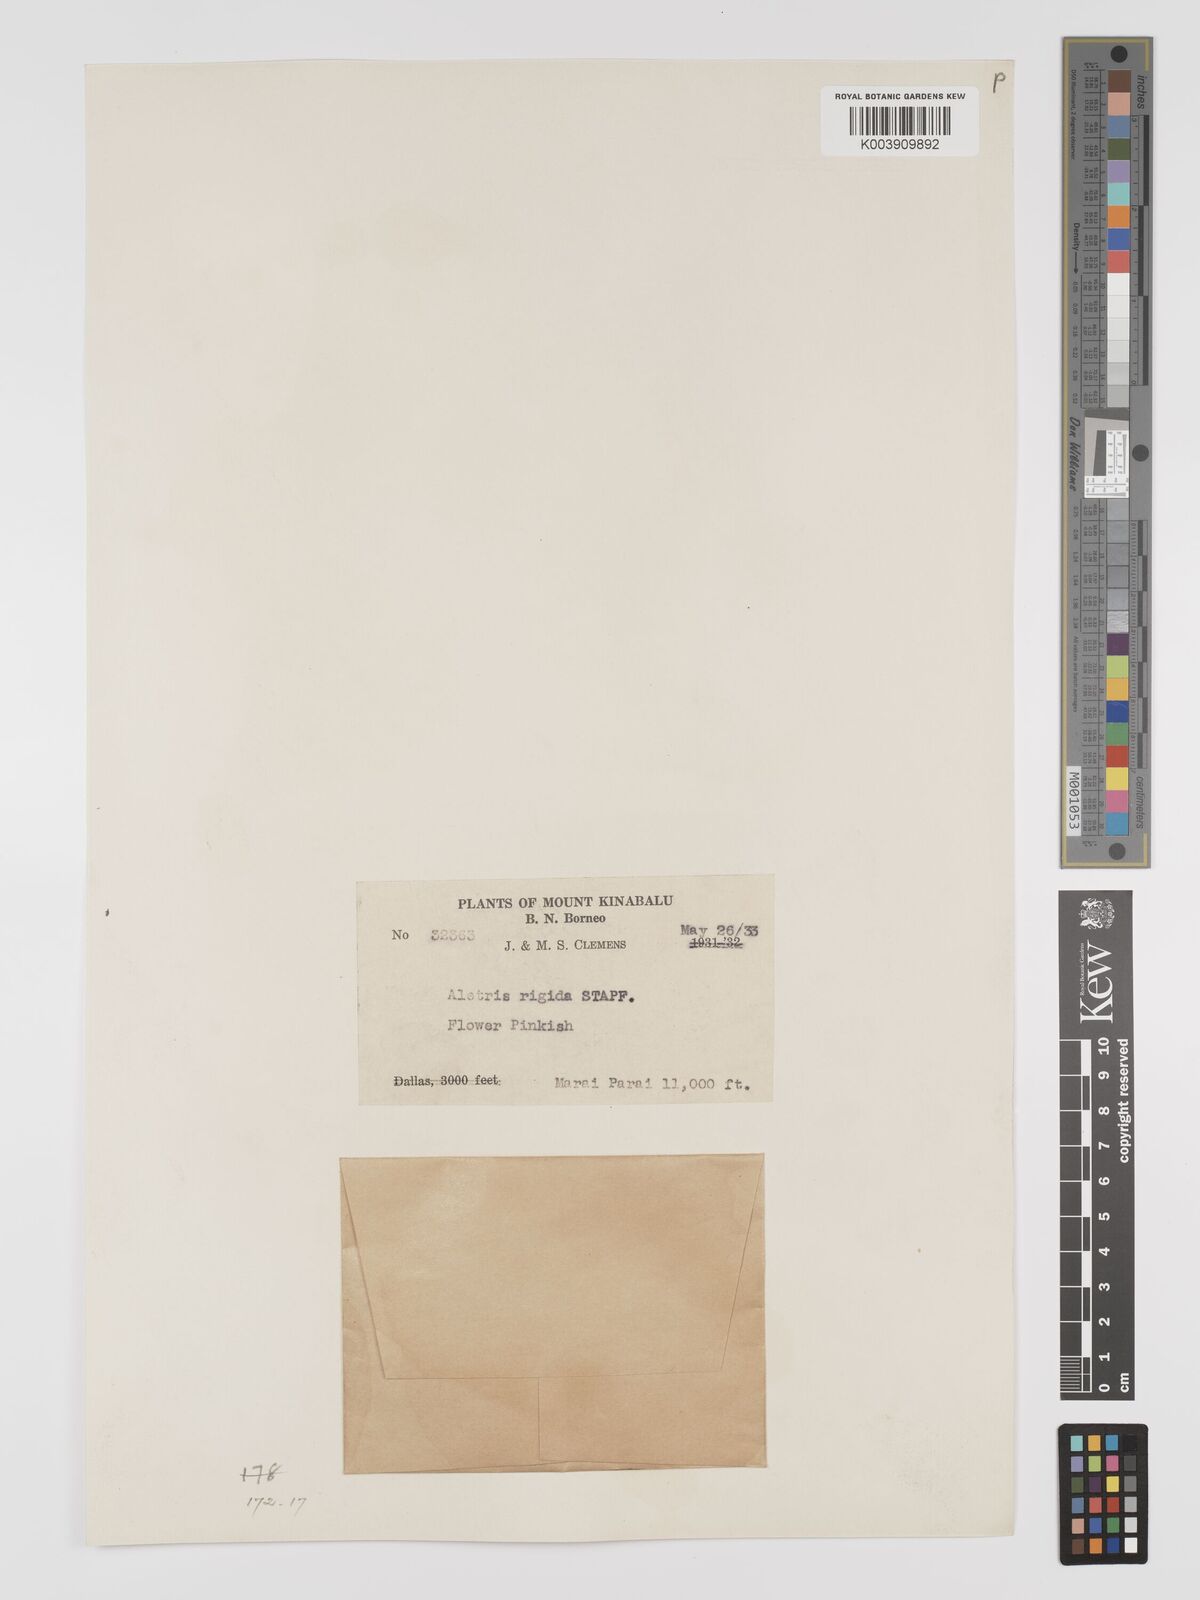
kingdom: Plantae
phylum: Tracheophyta
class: Liliopsida
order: Dioscoreales
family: Nartheciaceae
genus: Aletris
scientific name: Aletris foliolosa
